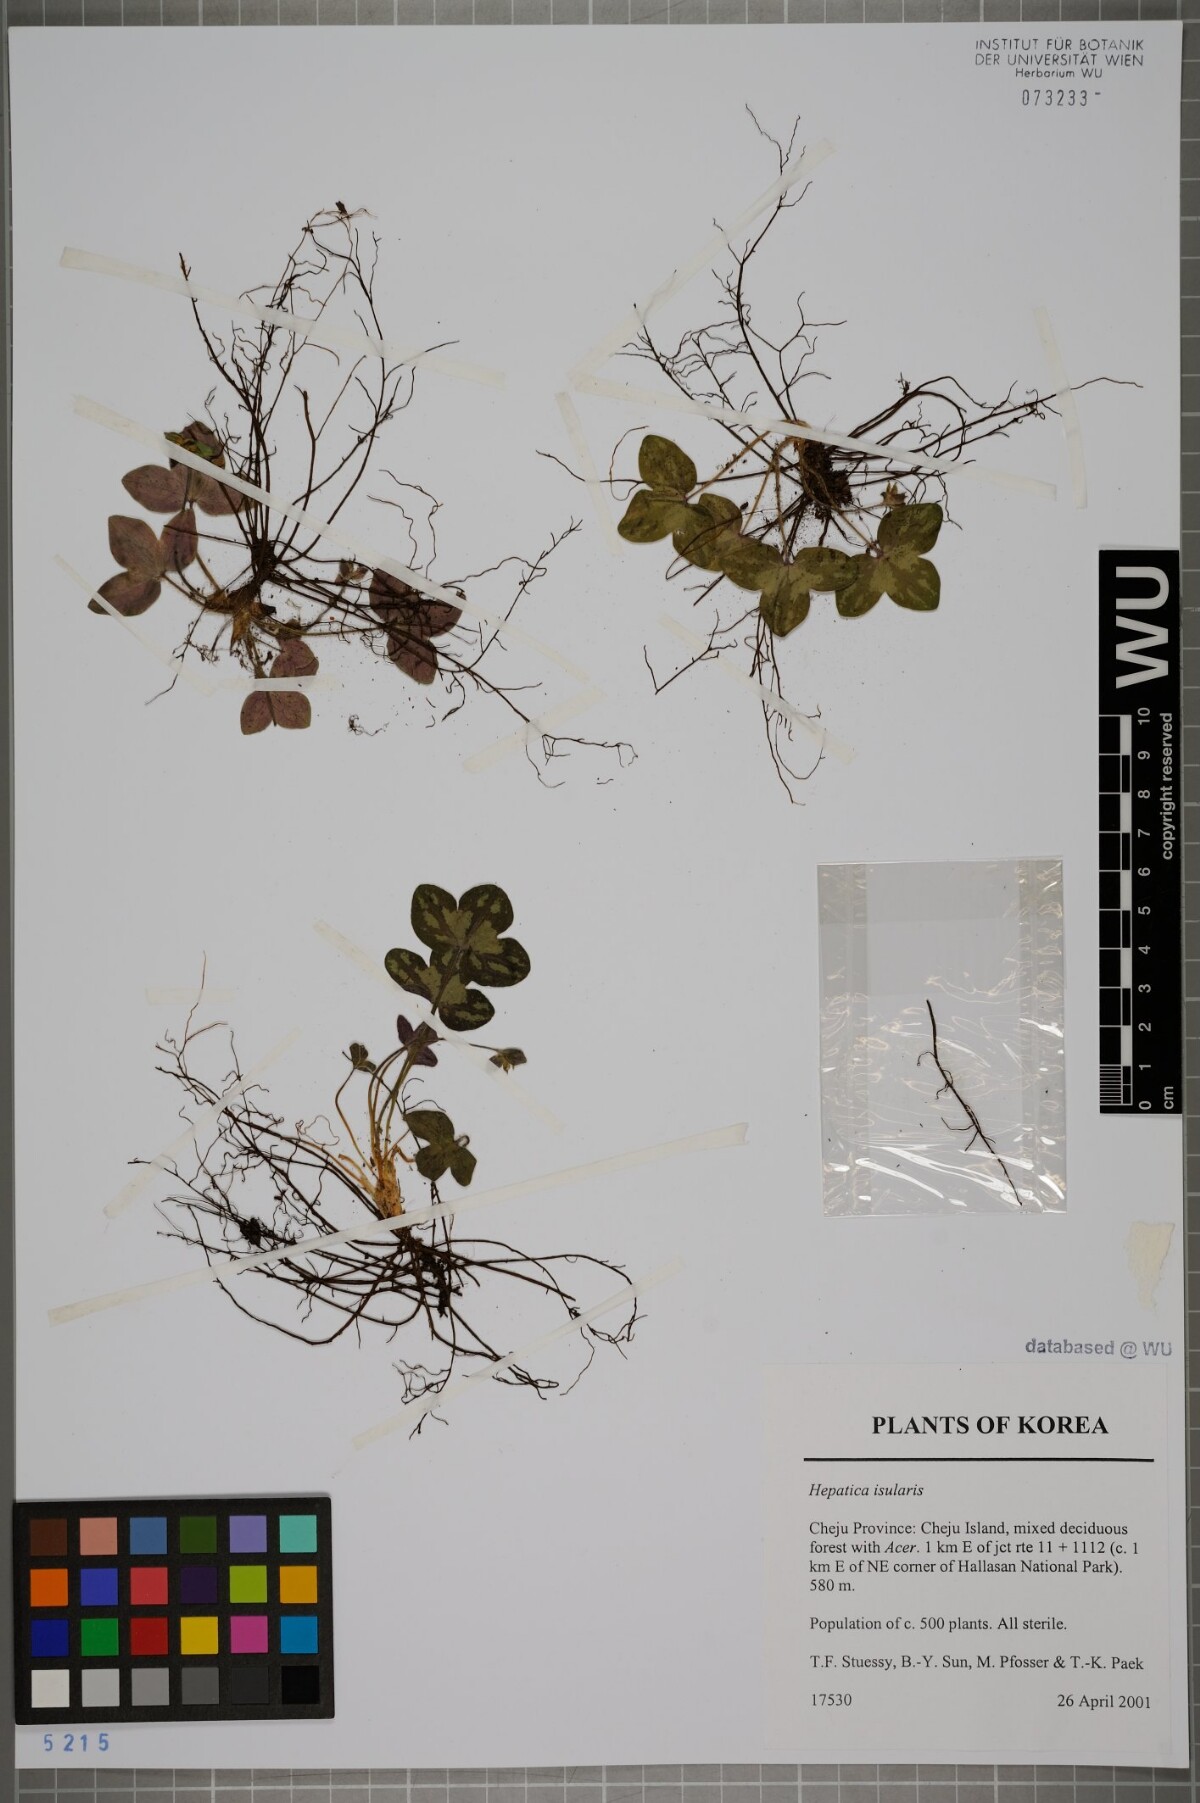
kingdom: Plantae
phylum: Tracheophyta
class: Magnoliopsida
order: Ranunculales
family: Ranunculaceae
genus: Hepatica
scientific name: Hepatica insularis
